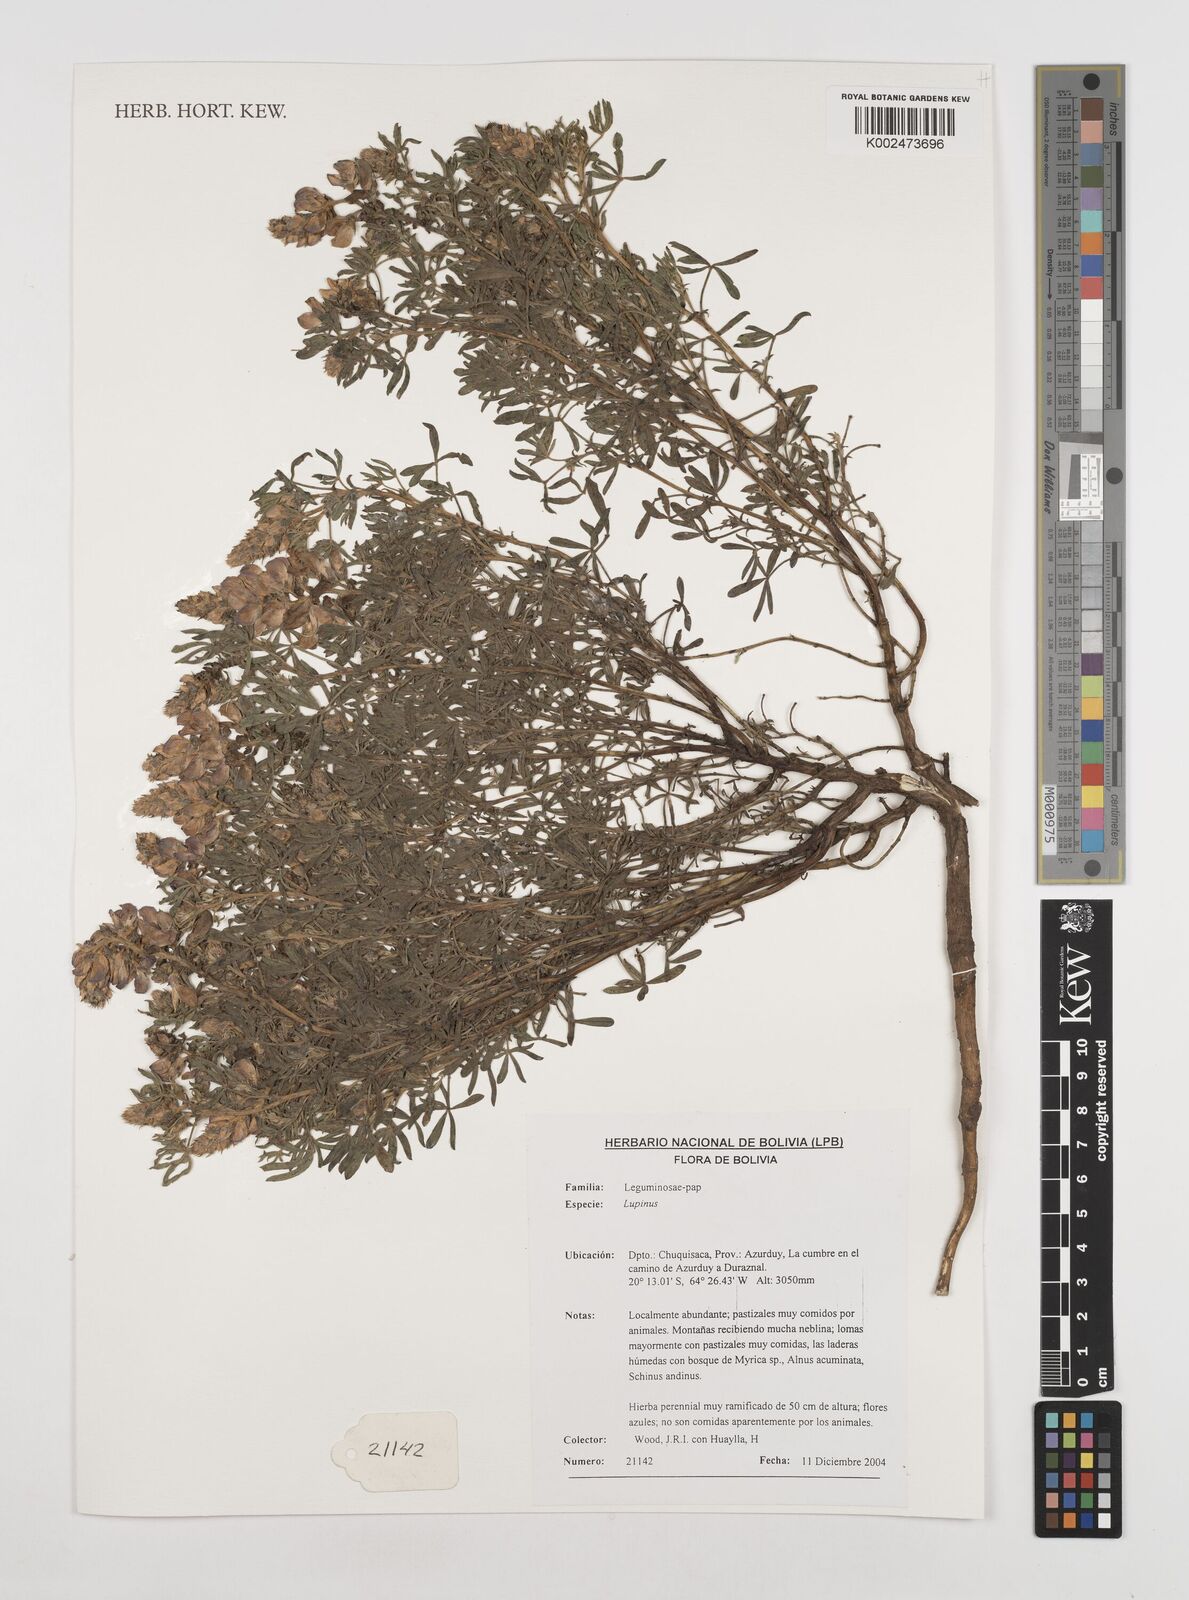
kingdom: Plantae
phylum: Tracheophyta
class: Magnoliopsida
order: Fabales
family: Fabaceae
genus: Lupinus
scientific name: Lupinus
